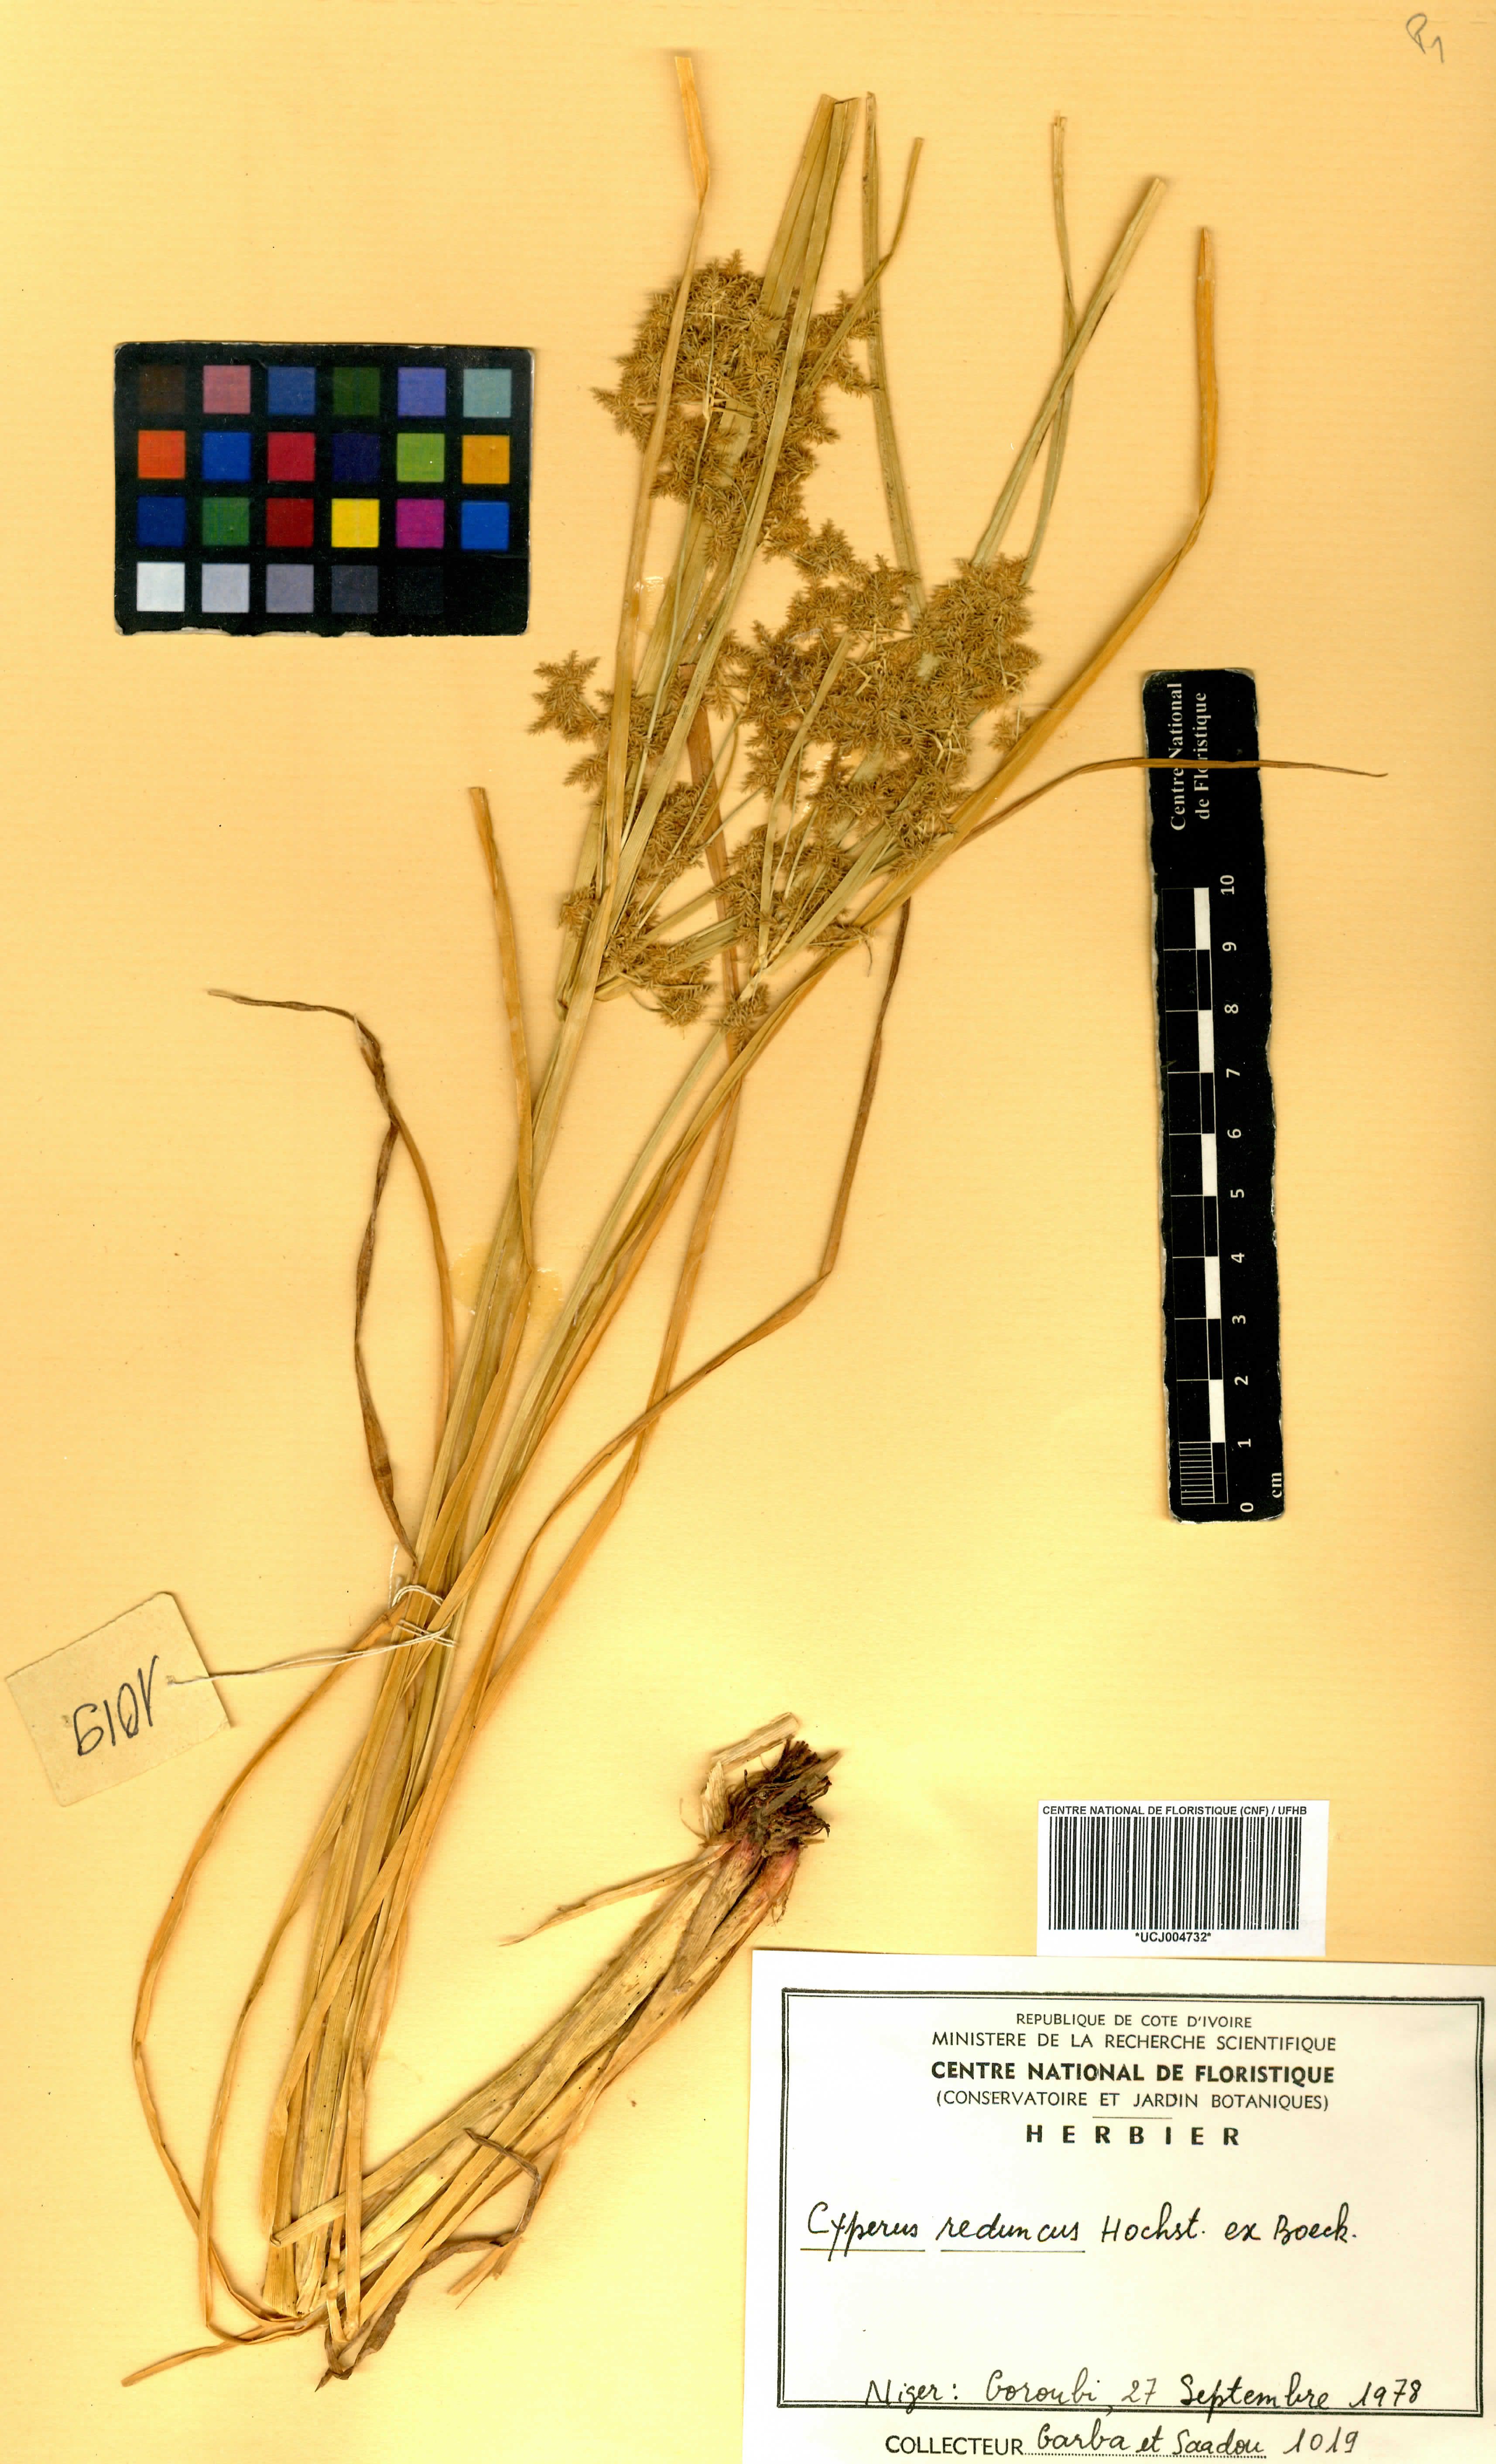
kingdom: Plantae
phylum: Tracheophyta
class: Liliopsida
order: Poales
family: Cyperaceae
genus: Cyperus
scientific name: Cyperus reduncus
